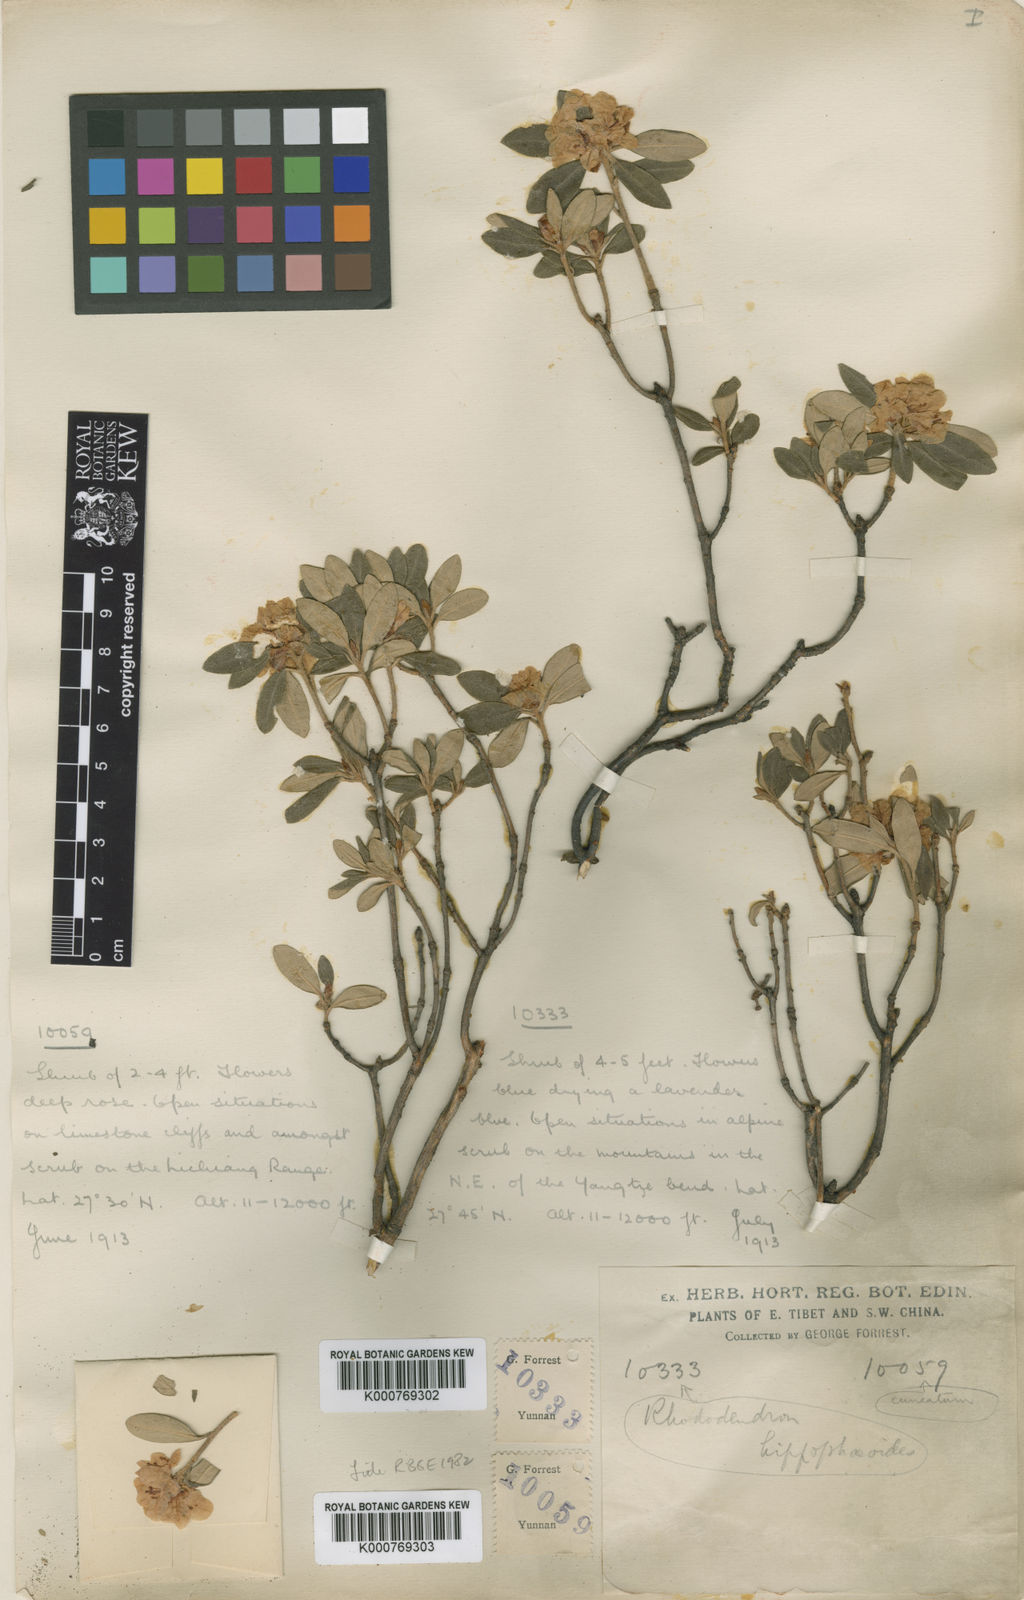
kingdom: Plantae
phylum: Tracheophyta
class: Magnoliopsida
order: Ericales
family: Ericaceae
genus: Rhododendron
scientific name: Rhododendron hippophaeoides
